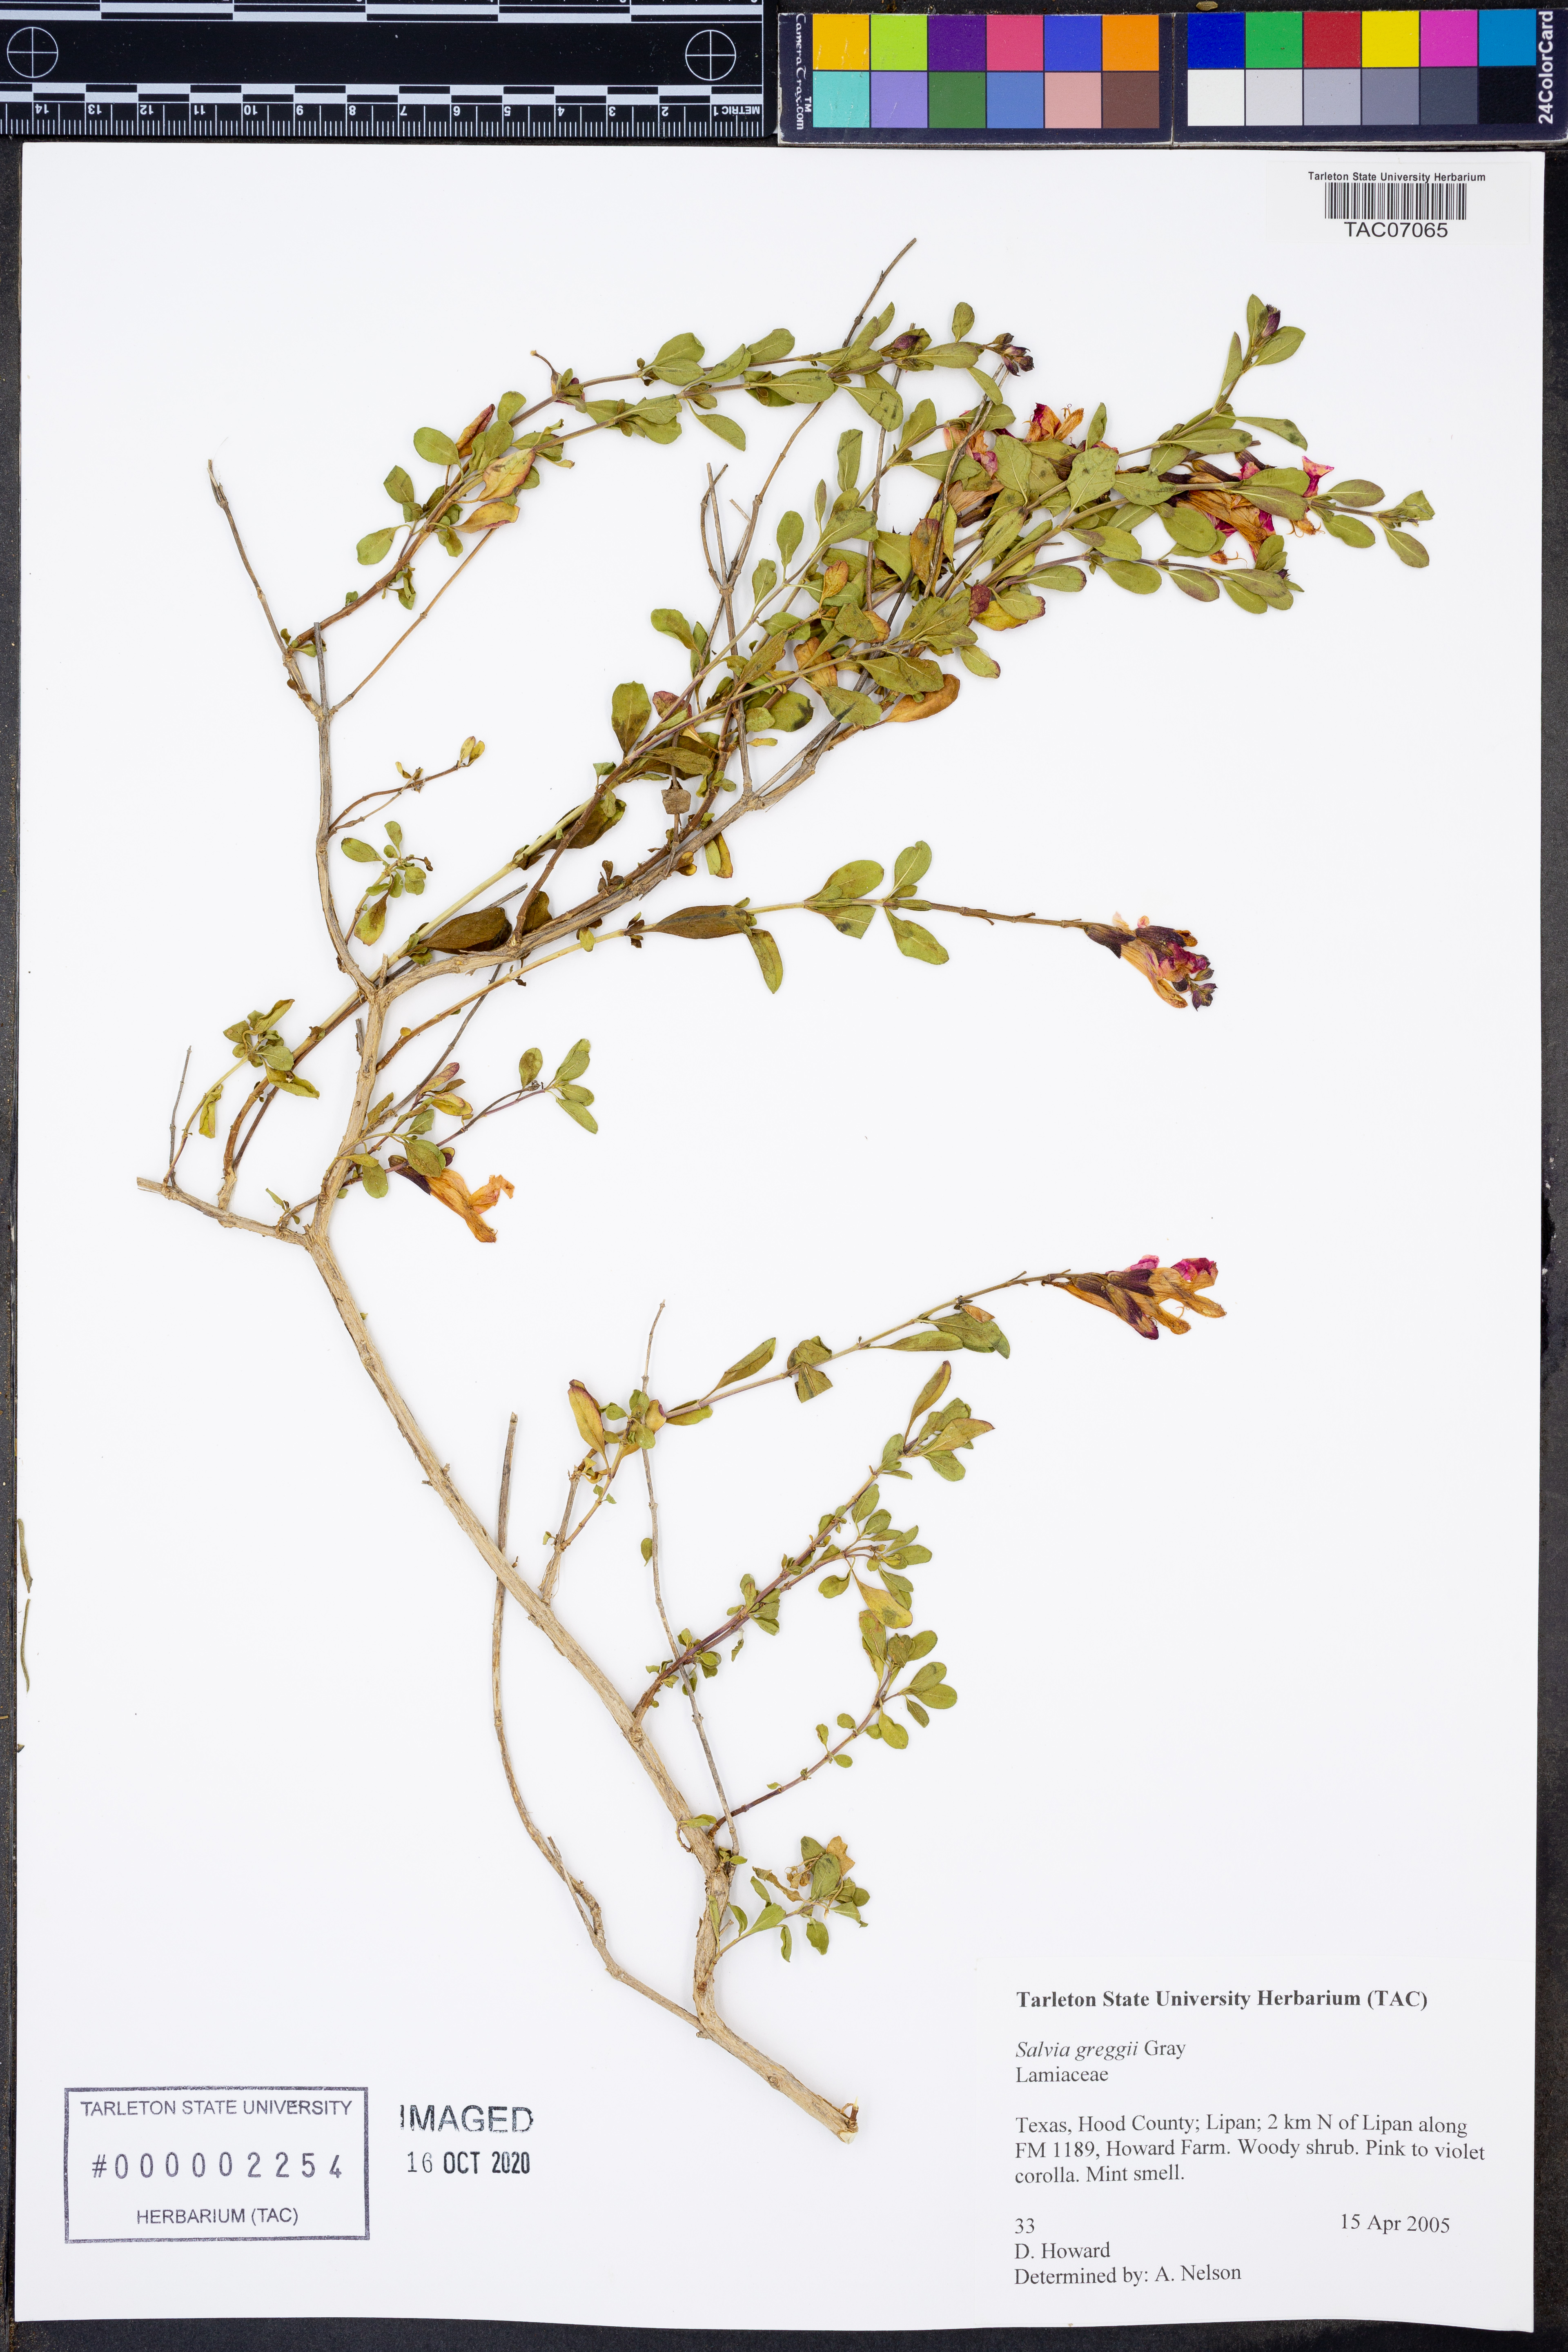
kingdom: Plantae
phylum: Tracheophyta
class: Magnoliopsida
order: Lamiales
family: Lamiaceae
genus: Salvia
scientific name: Salvia greggii
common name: Autumn sage
